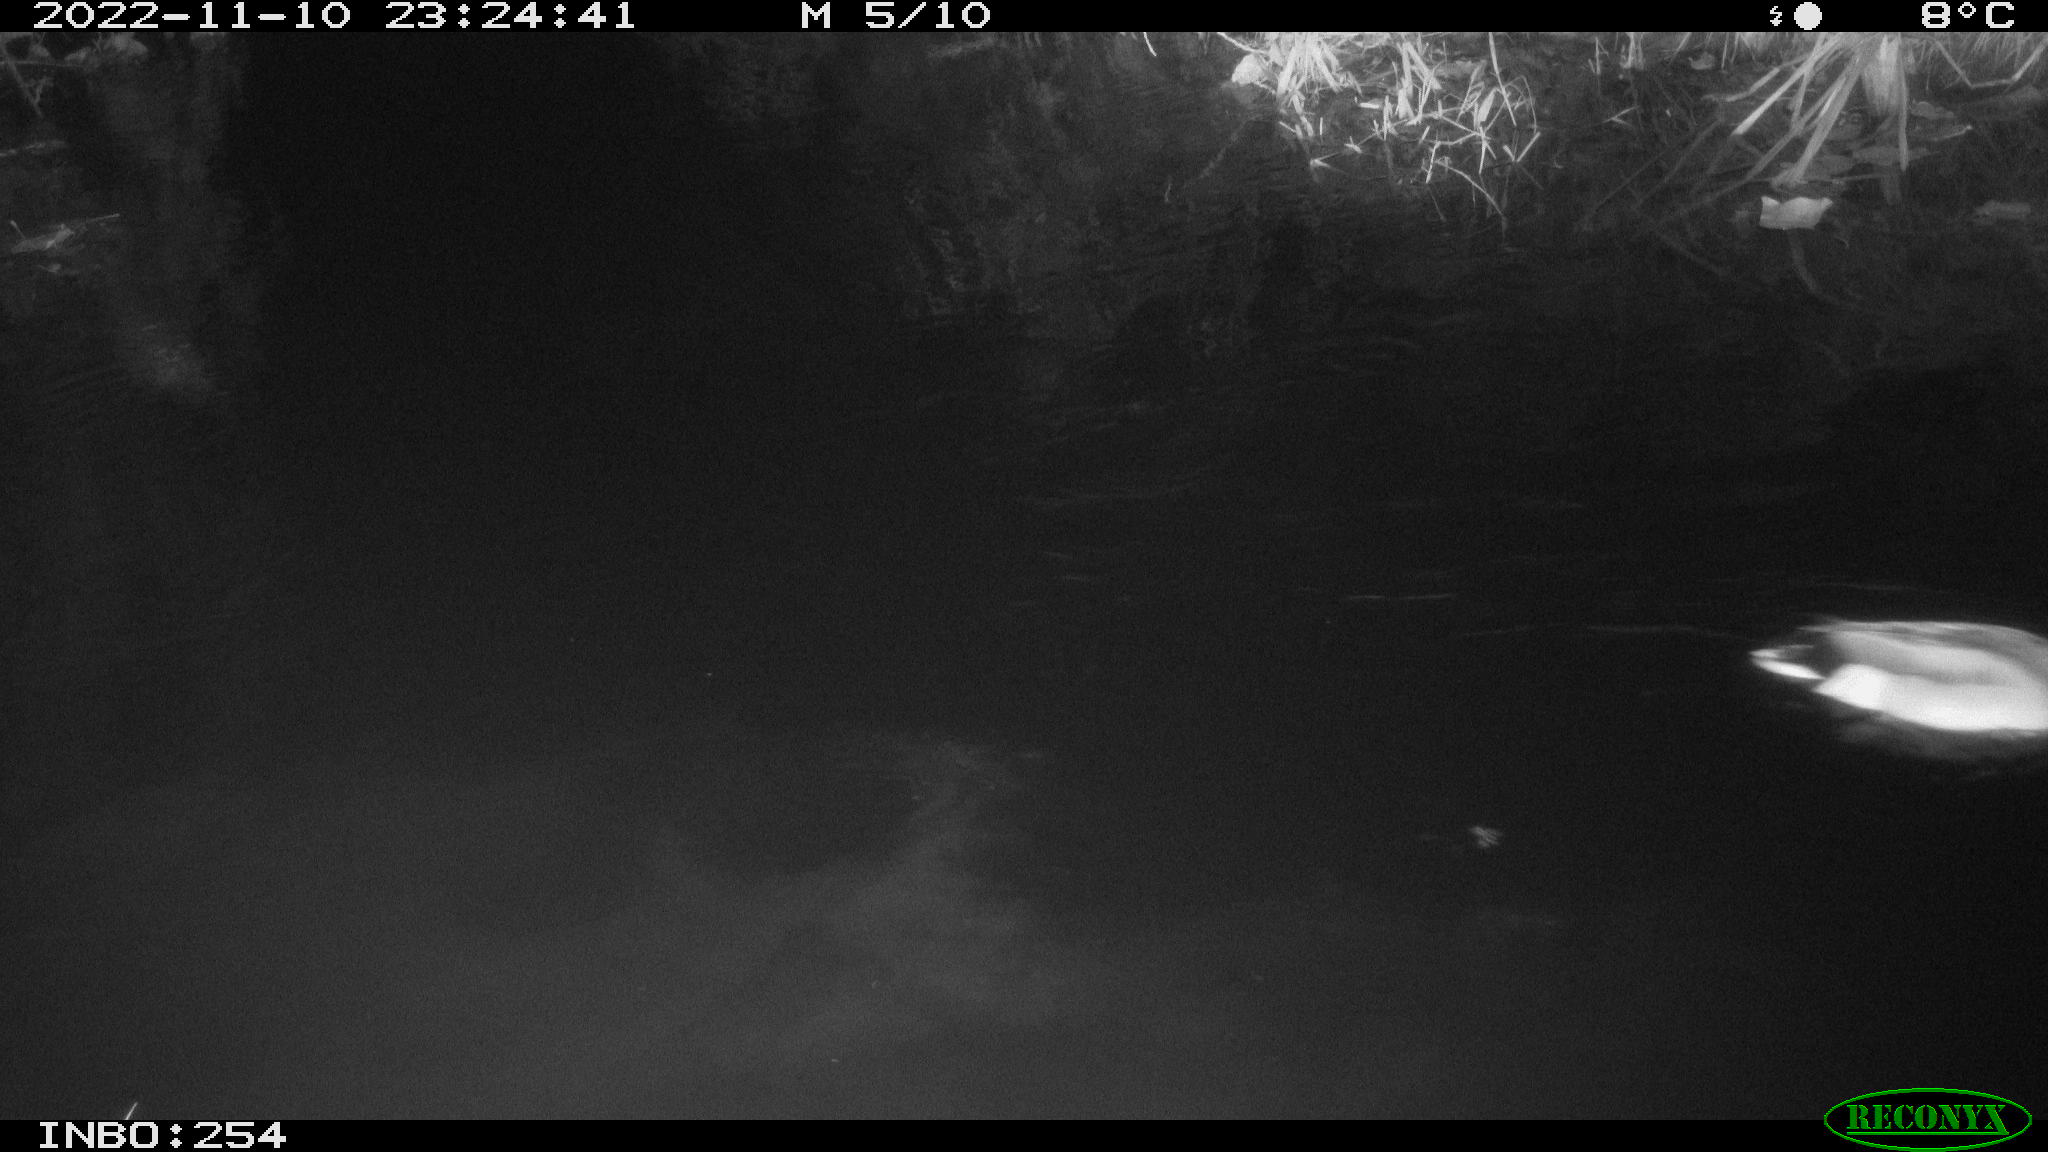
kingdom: Animalia
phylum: Chordata
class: Aves
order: Anseriformes
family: Anatidae
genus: Anas
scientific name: Anas
